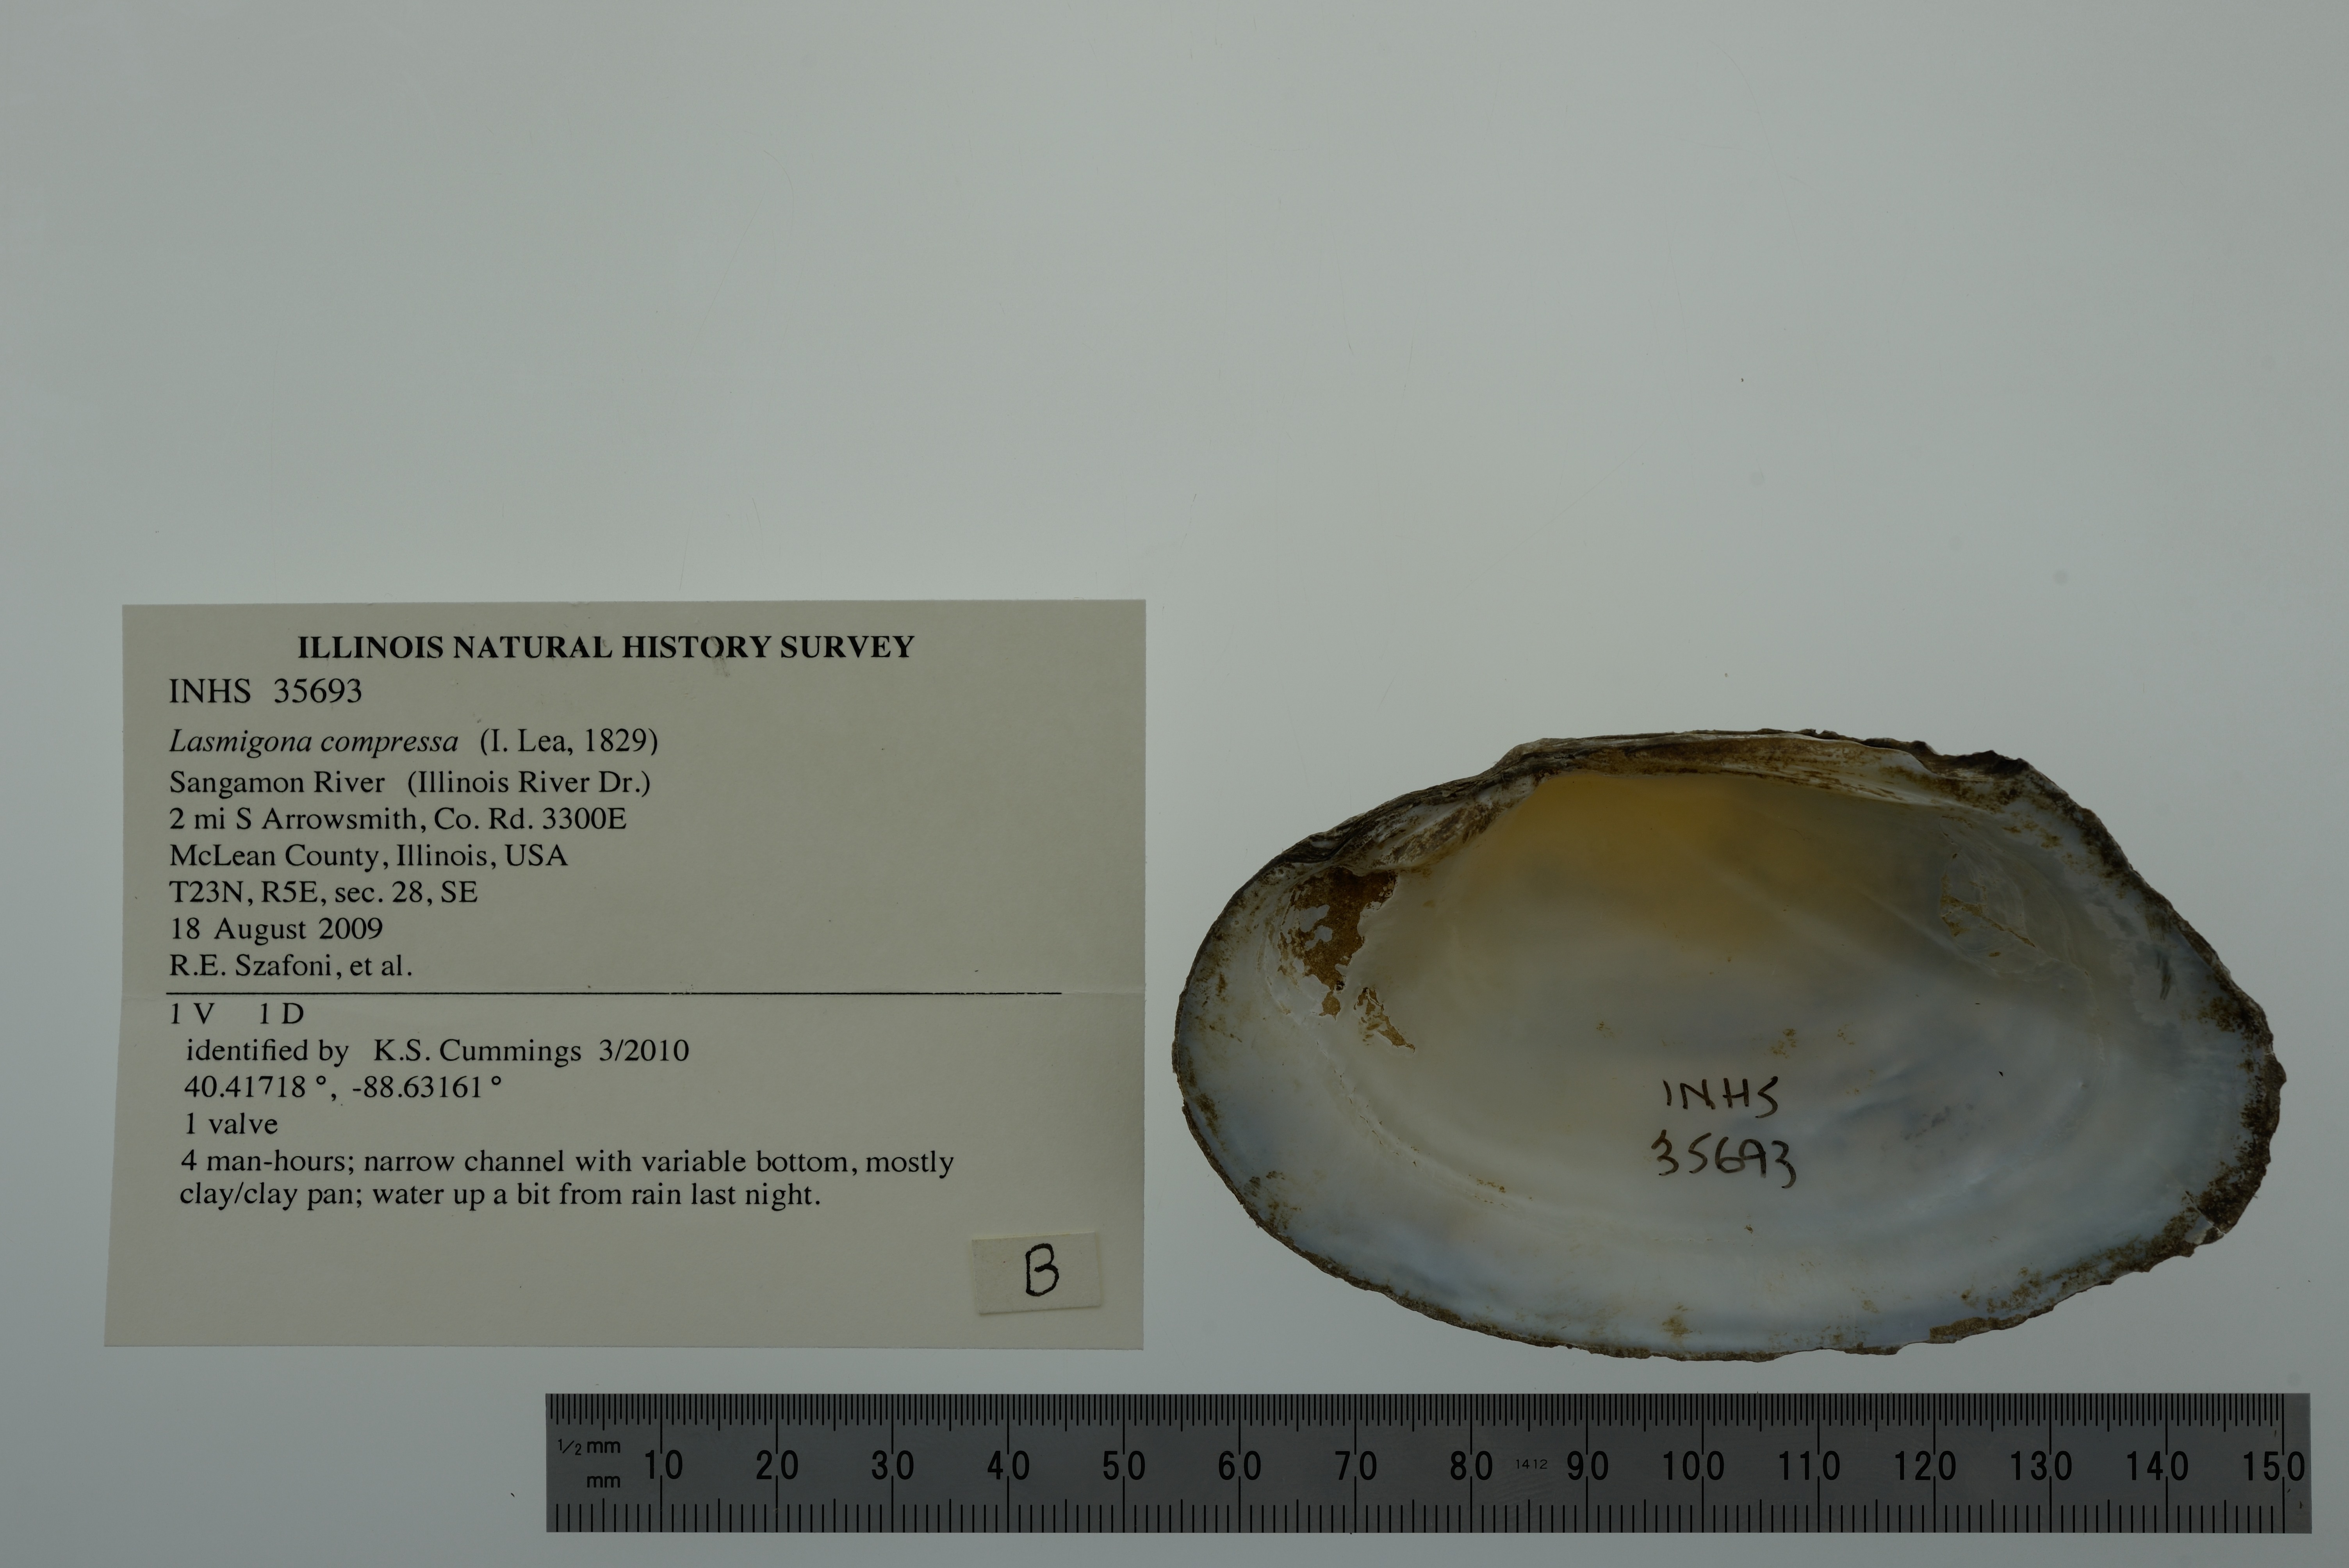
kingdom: Animalia
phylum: Mollusca
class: Bivalvia
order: Unionida
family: Unionidae
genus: Lasmigona
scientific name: Lasmigona compressa
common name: Creek heelsplitter
